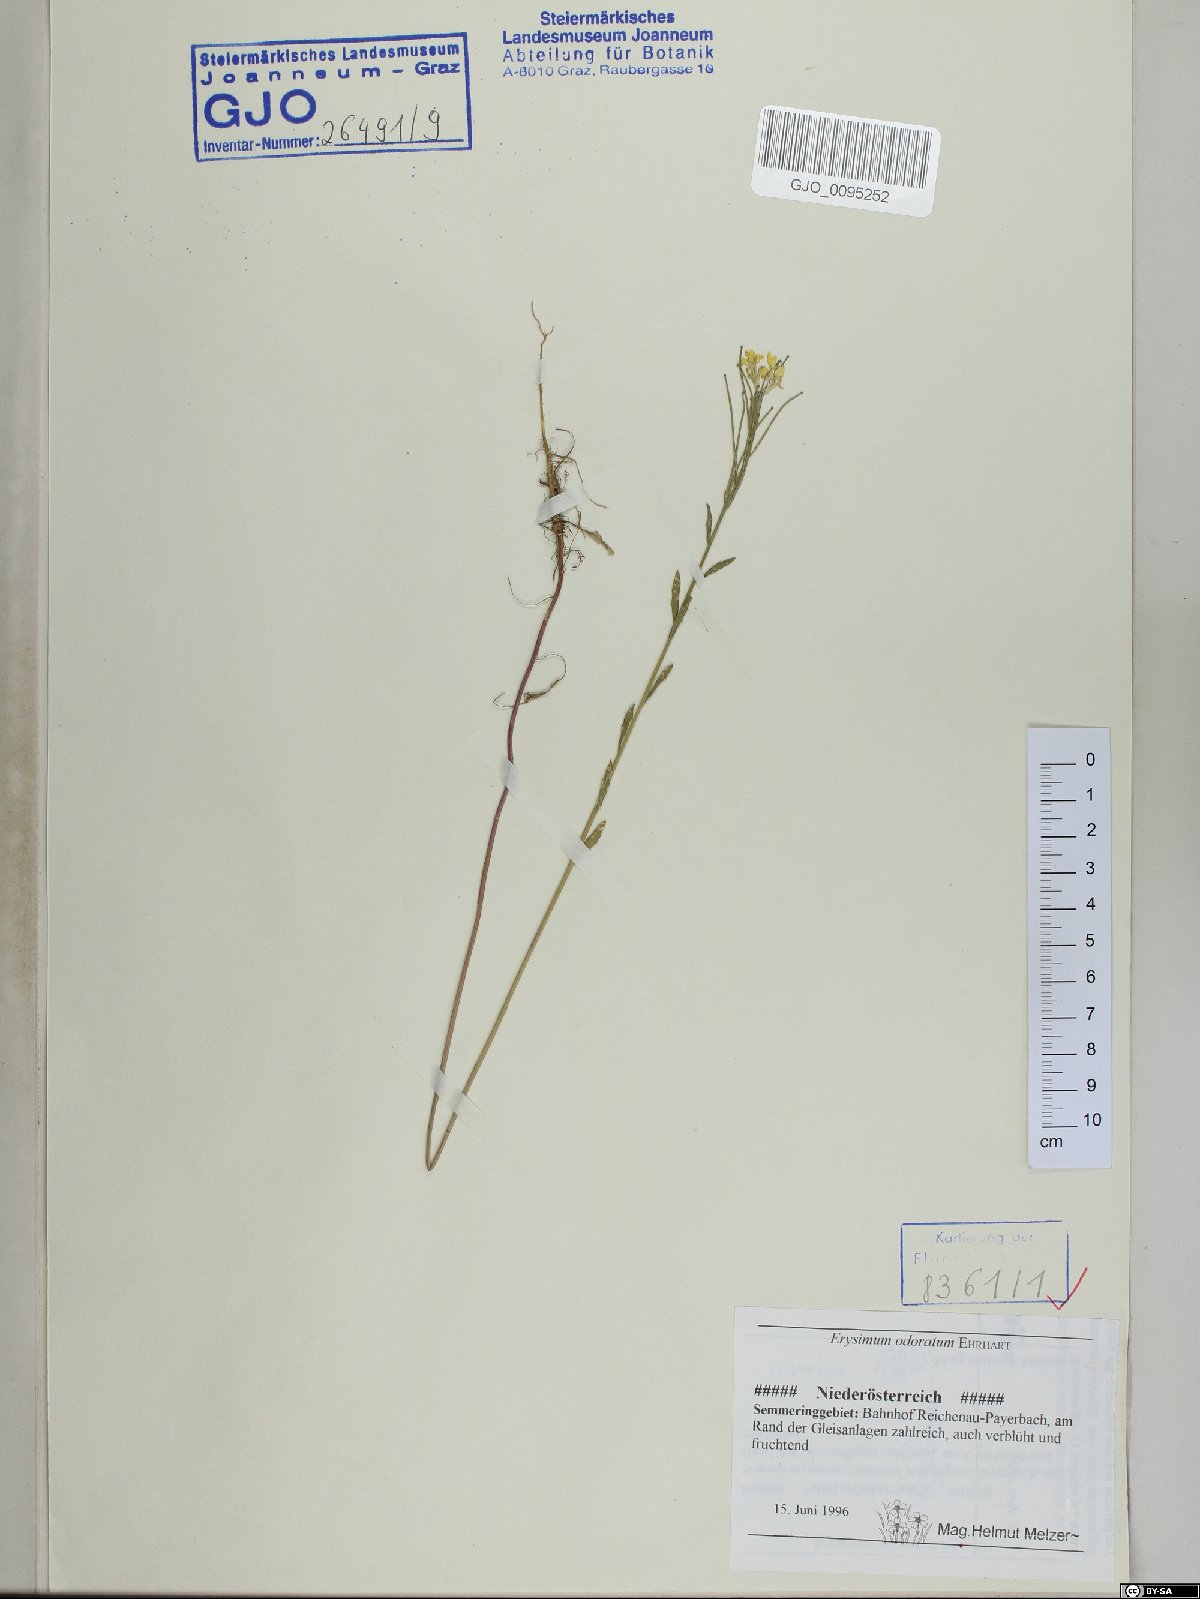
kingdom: Plantae
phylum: Tracheophyta
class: Magnoliopsida
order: Brassicales
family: Brassicaceae
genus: Erysimum
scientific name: Erysimum odoratum
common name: Smelly wallflower
